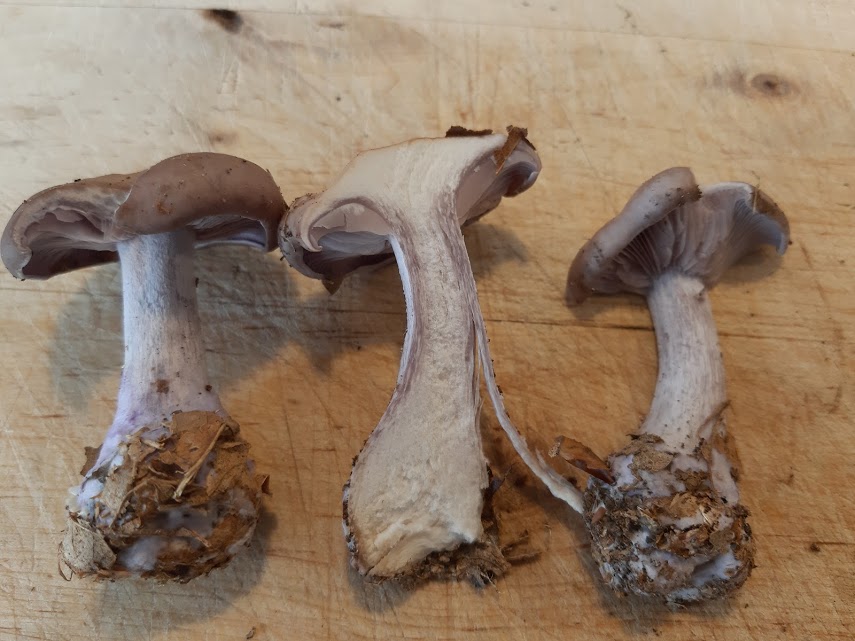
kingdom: Fungi
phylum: Basidiomycota
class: Agaricomycetes
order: Agaricales
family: Tricholomataceae
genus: Lepista
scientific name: Lepista nuda
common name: violet hekseringshat
